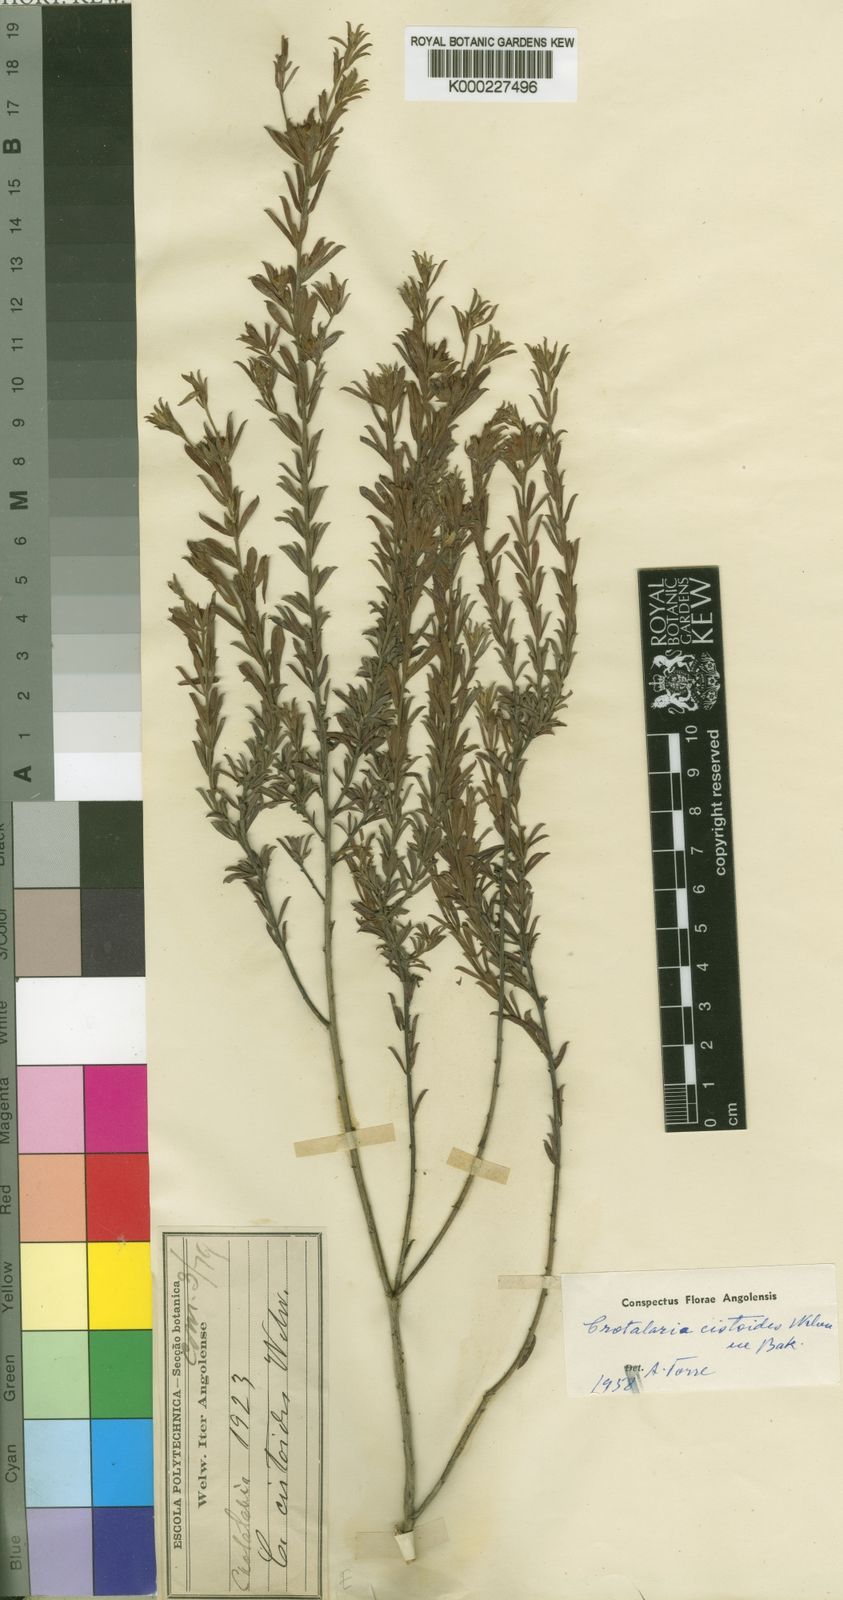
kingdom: Plantae
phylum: Tracheophyta
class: Magnoliopsida
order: Fabales
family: Fabaceae
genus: Crotalaria
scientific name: Crotalaria cistoides
